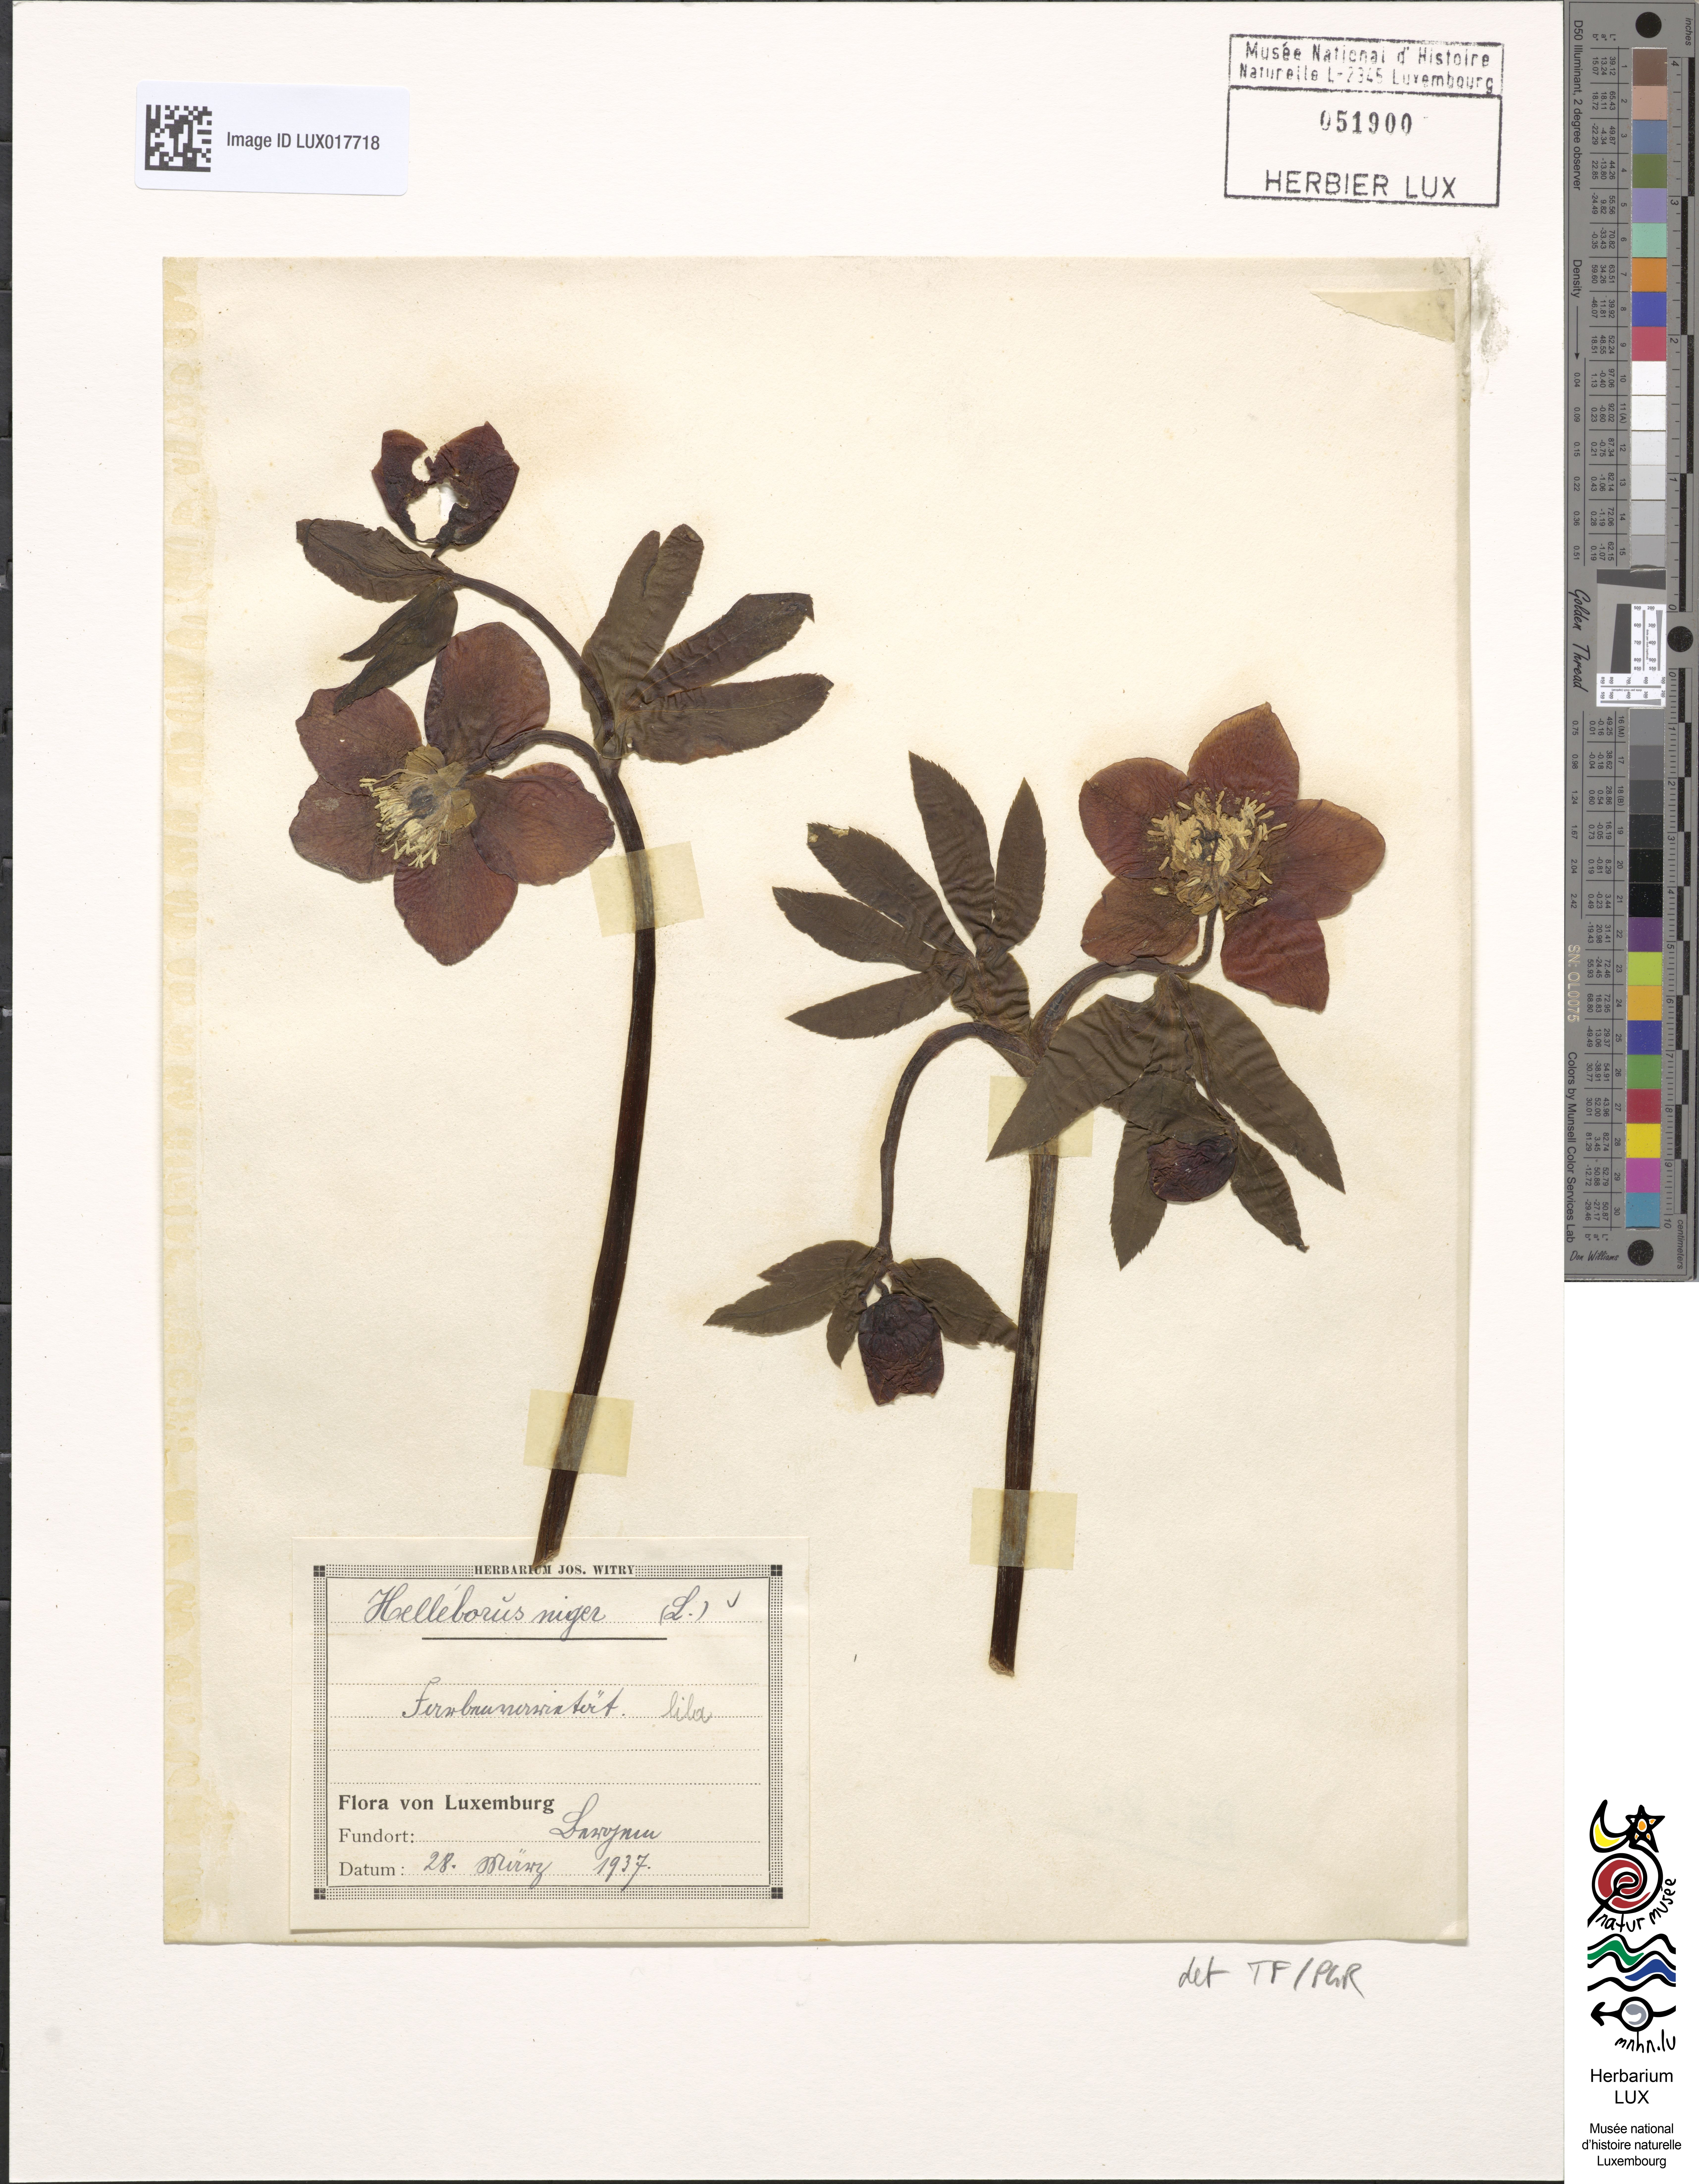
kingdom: Plantae
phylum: Tracheophyta
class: Magnoliopsida
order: Ranunculales
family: Ranunculaceae
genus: Helleborus
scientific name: Helleborus niger
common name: Black hellebore
